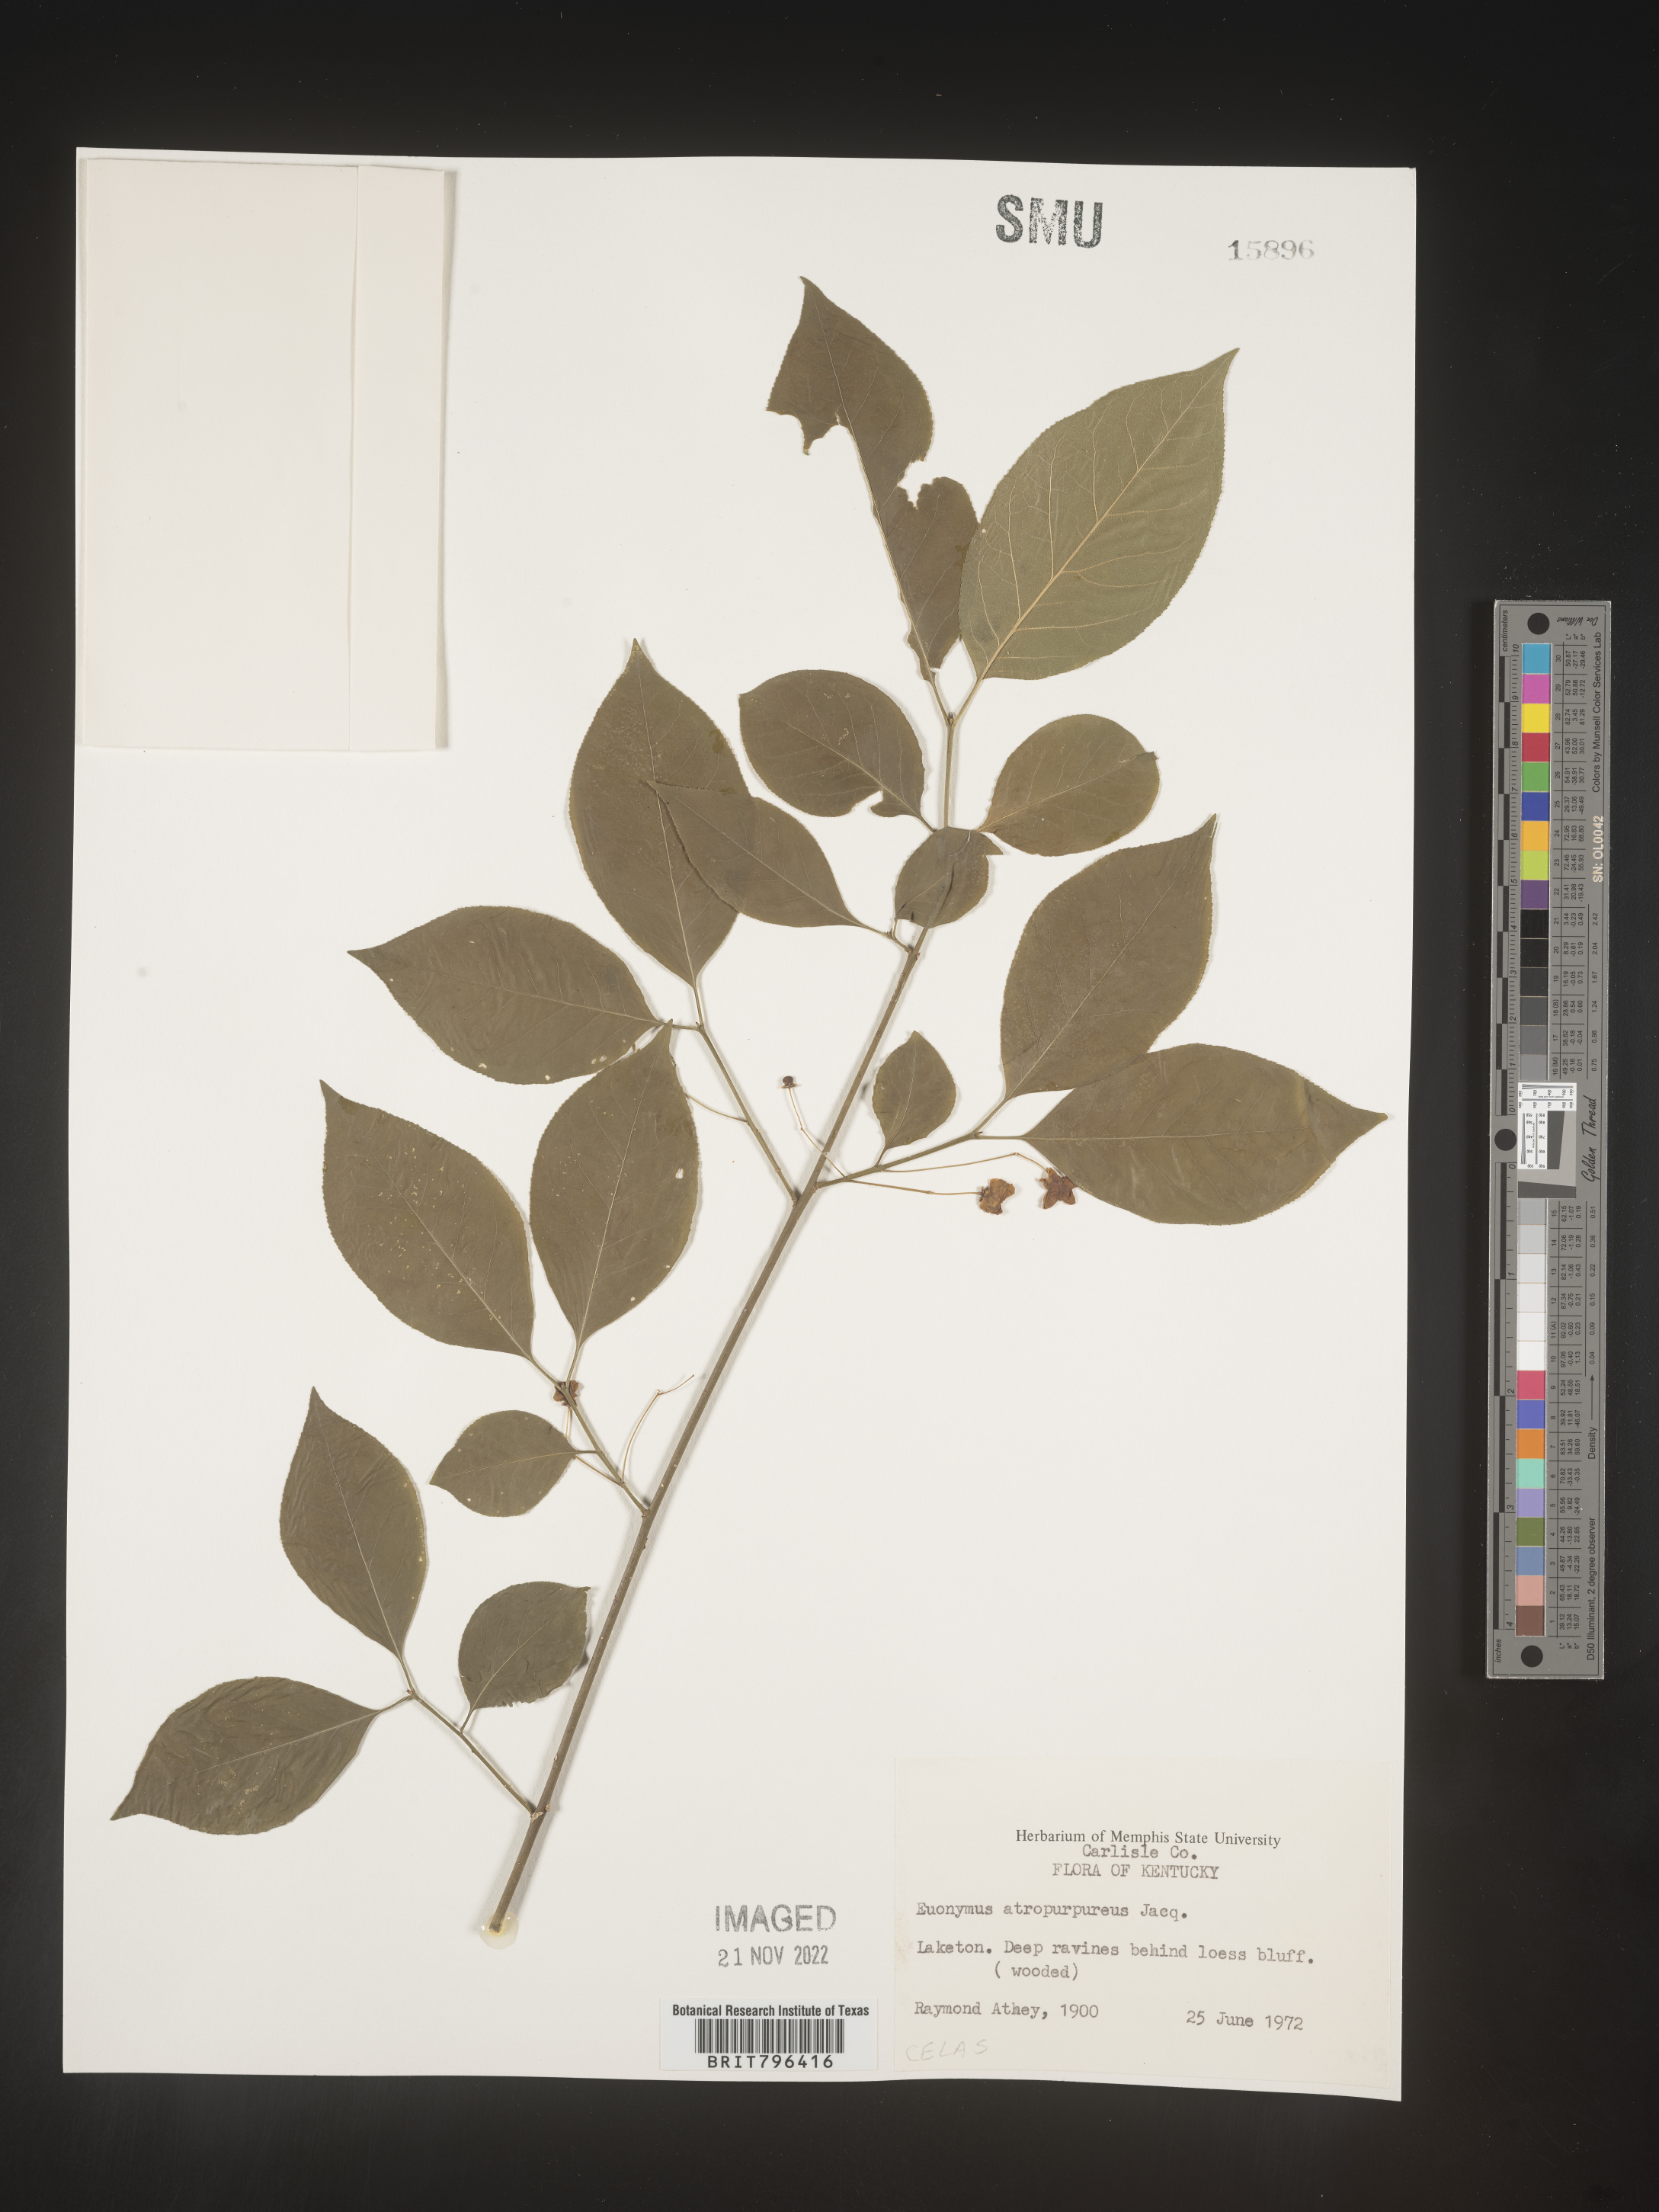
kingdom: Plantae
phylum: Tracheophyta
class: Magnoliopsida
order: Celastrales
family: Celastraceae
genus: Euonymus
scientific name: Euonymus atropurpureus
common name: Eastern wahoo
